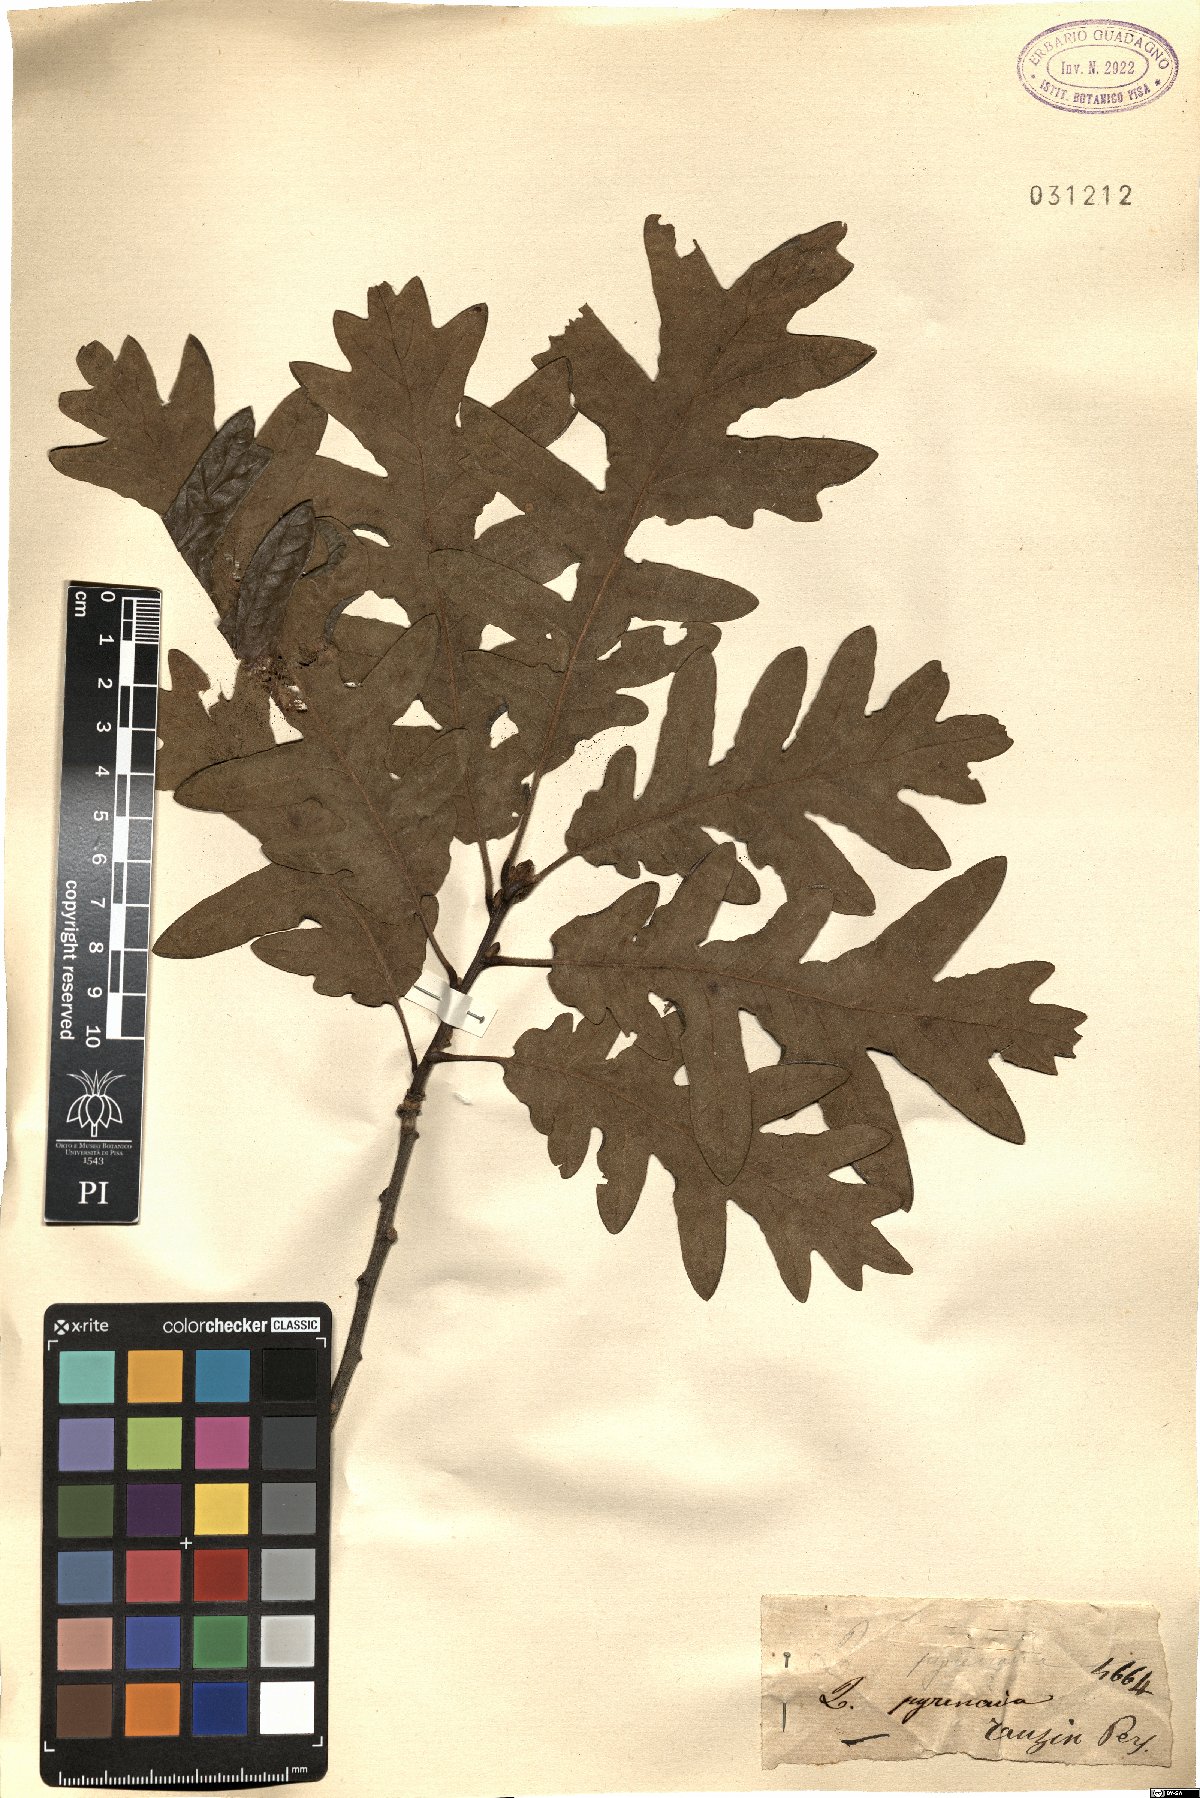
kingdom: Plantae
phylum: Tracheophyta
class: Magnoliopsida
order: Fagales
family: Fagaceae
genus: Quercus
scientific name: Quercus pyrenaica
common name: Pyrenean oak
